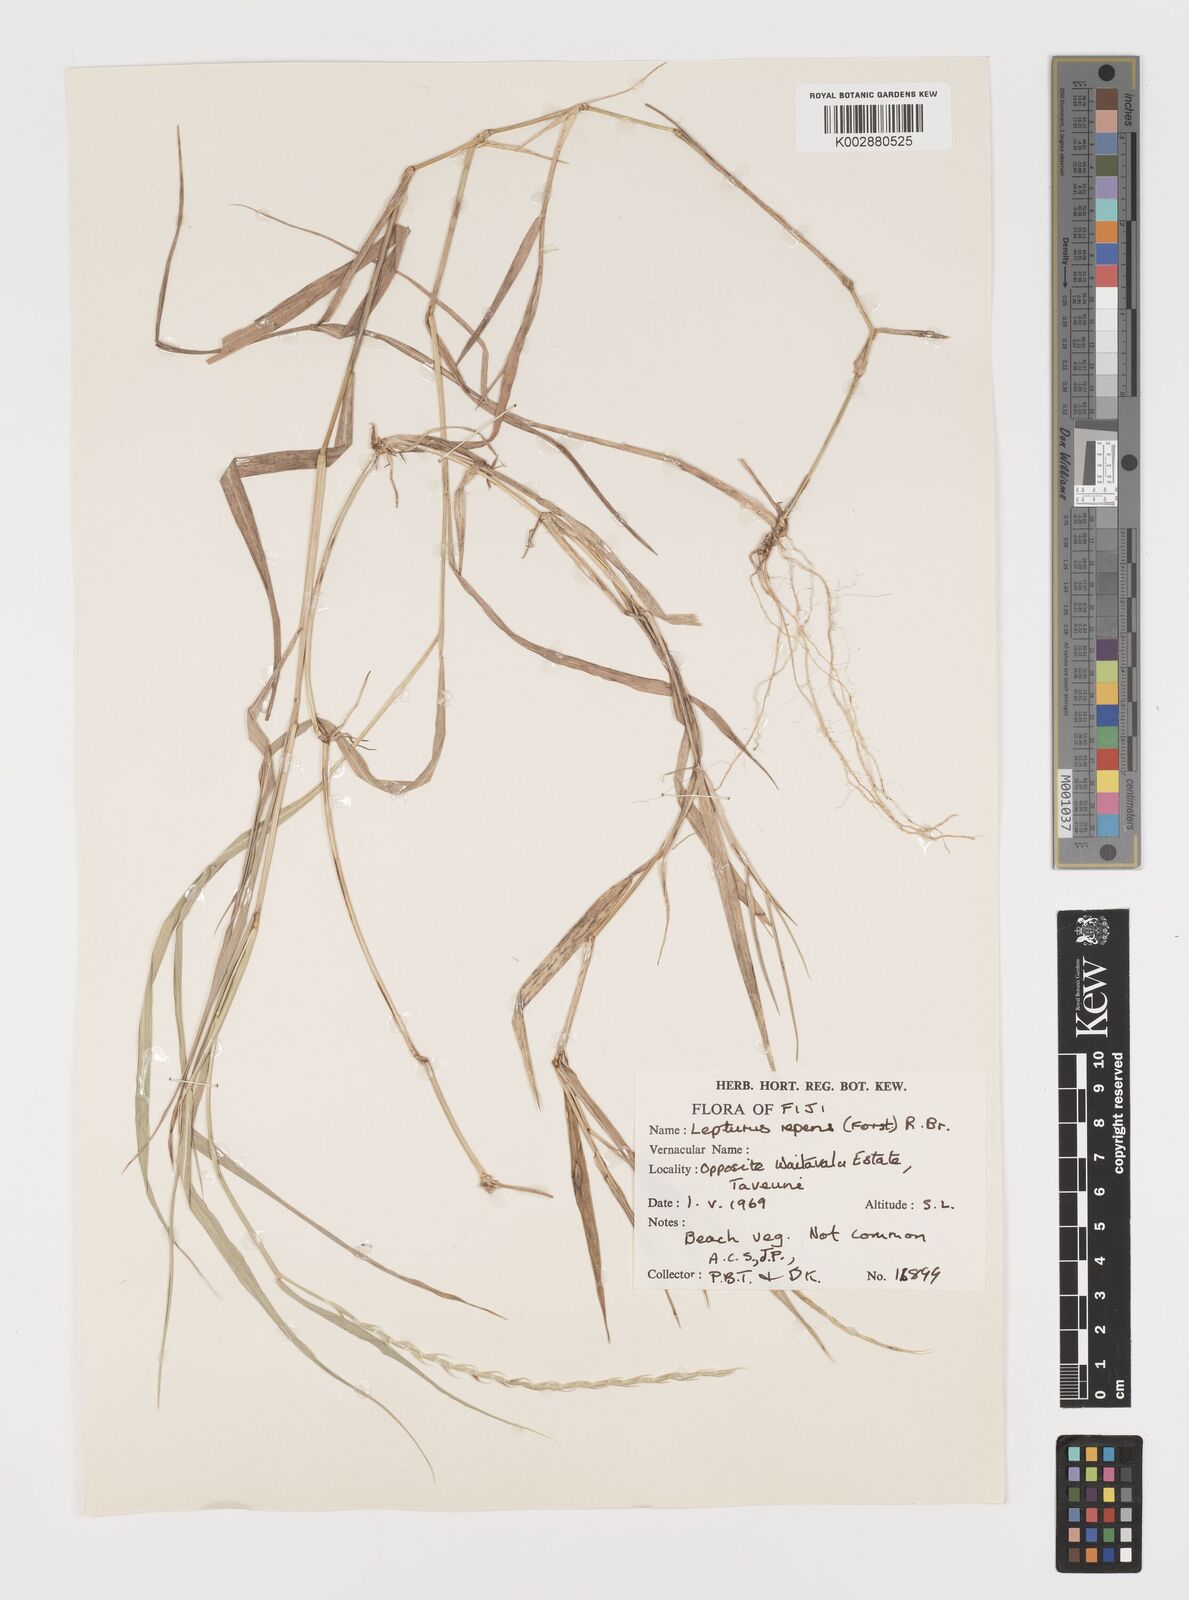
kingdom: Plantae
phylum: Tracheophyta
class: Liliopsida
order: Poales
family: Poaceae
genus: Lepturus
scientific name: Lepturus repens
